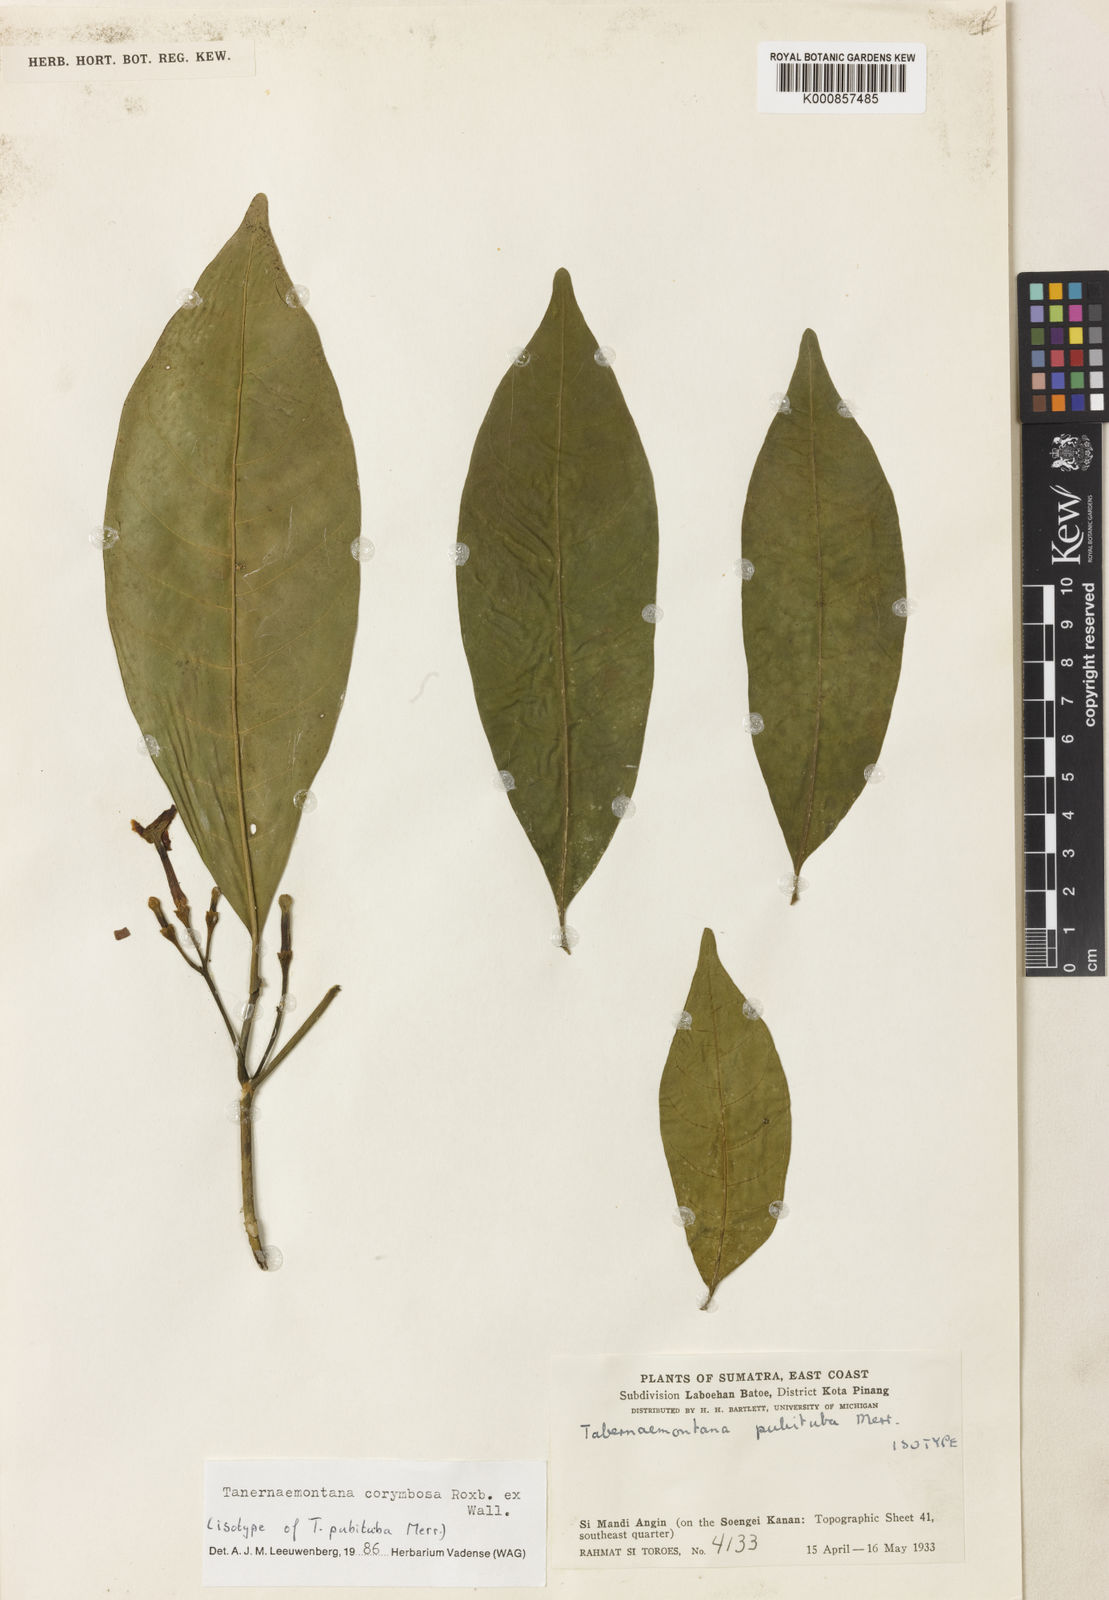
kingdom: Plantae
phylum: Tracheophyta
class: Magnoliopsida
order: Gentianales
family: Apocynaceae
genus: Tabernaemontana
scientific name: Tabernaemontana corymbosa
